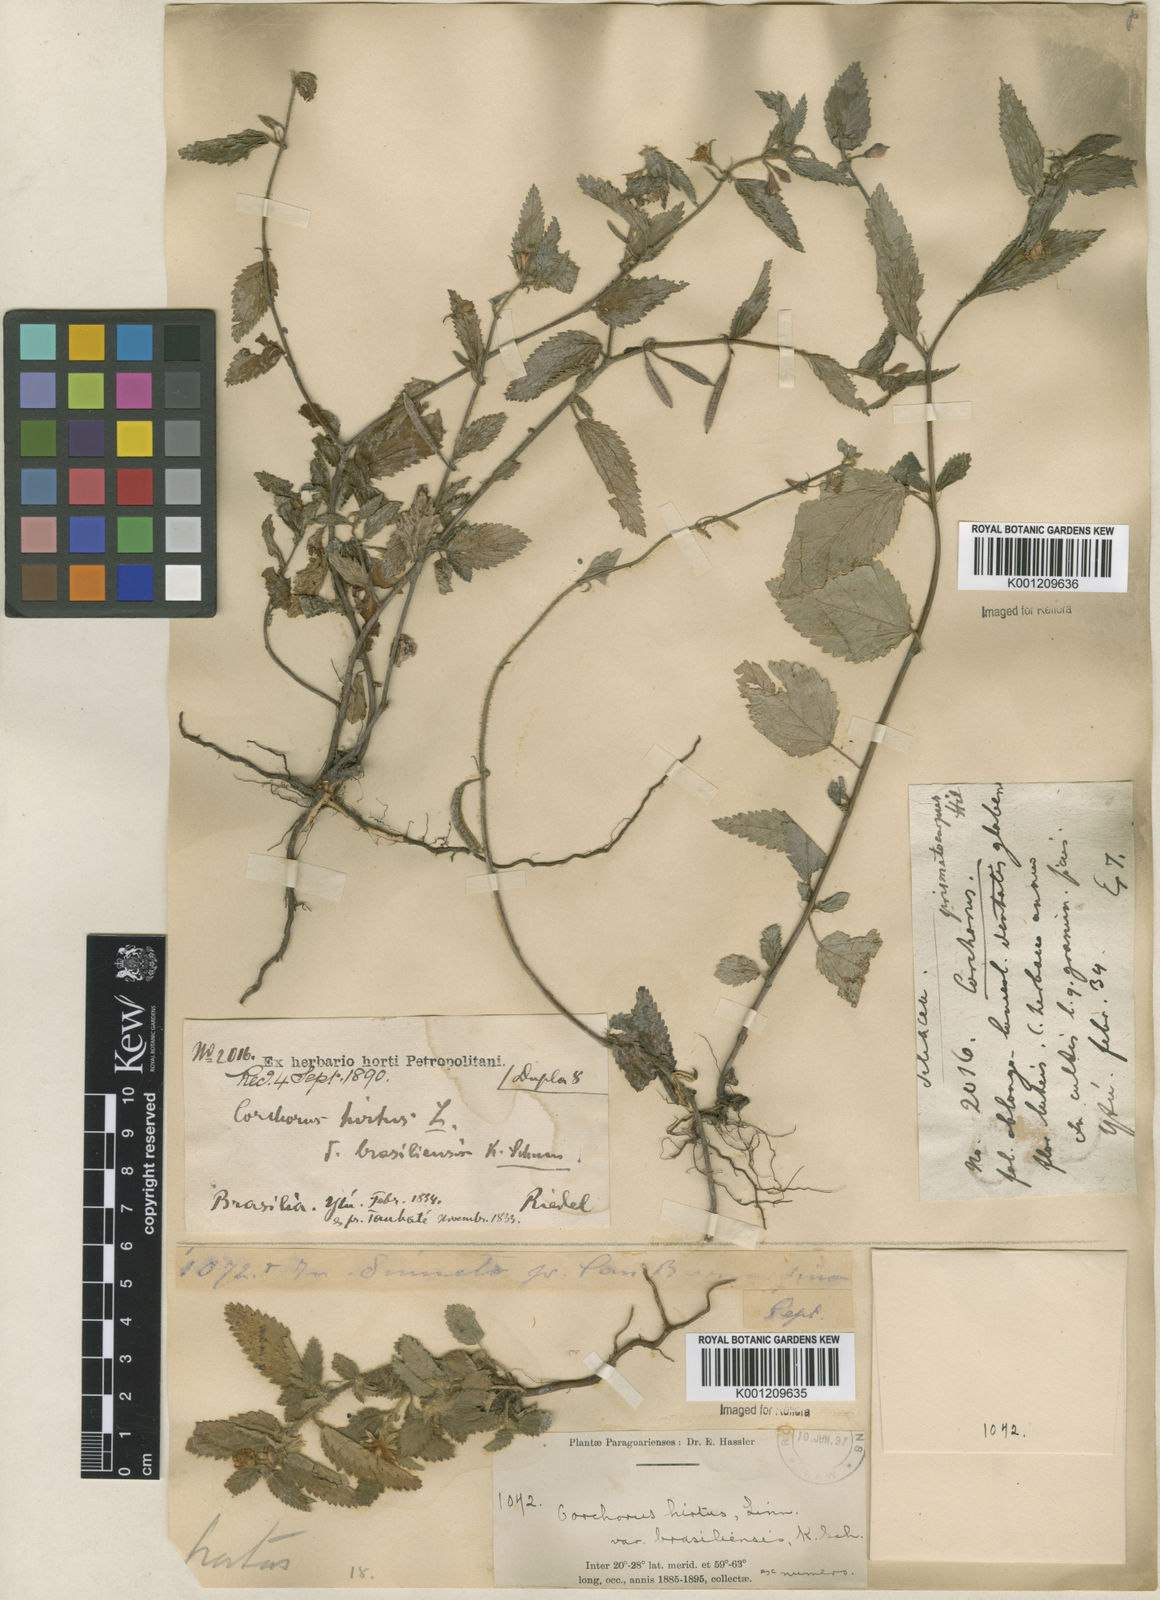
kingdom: Plantae
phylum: Tracheophyta
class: Magnoliopsida
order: Malvales
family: Malvaceae
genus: Corchorus
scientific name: Corchorus hirtus
